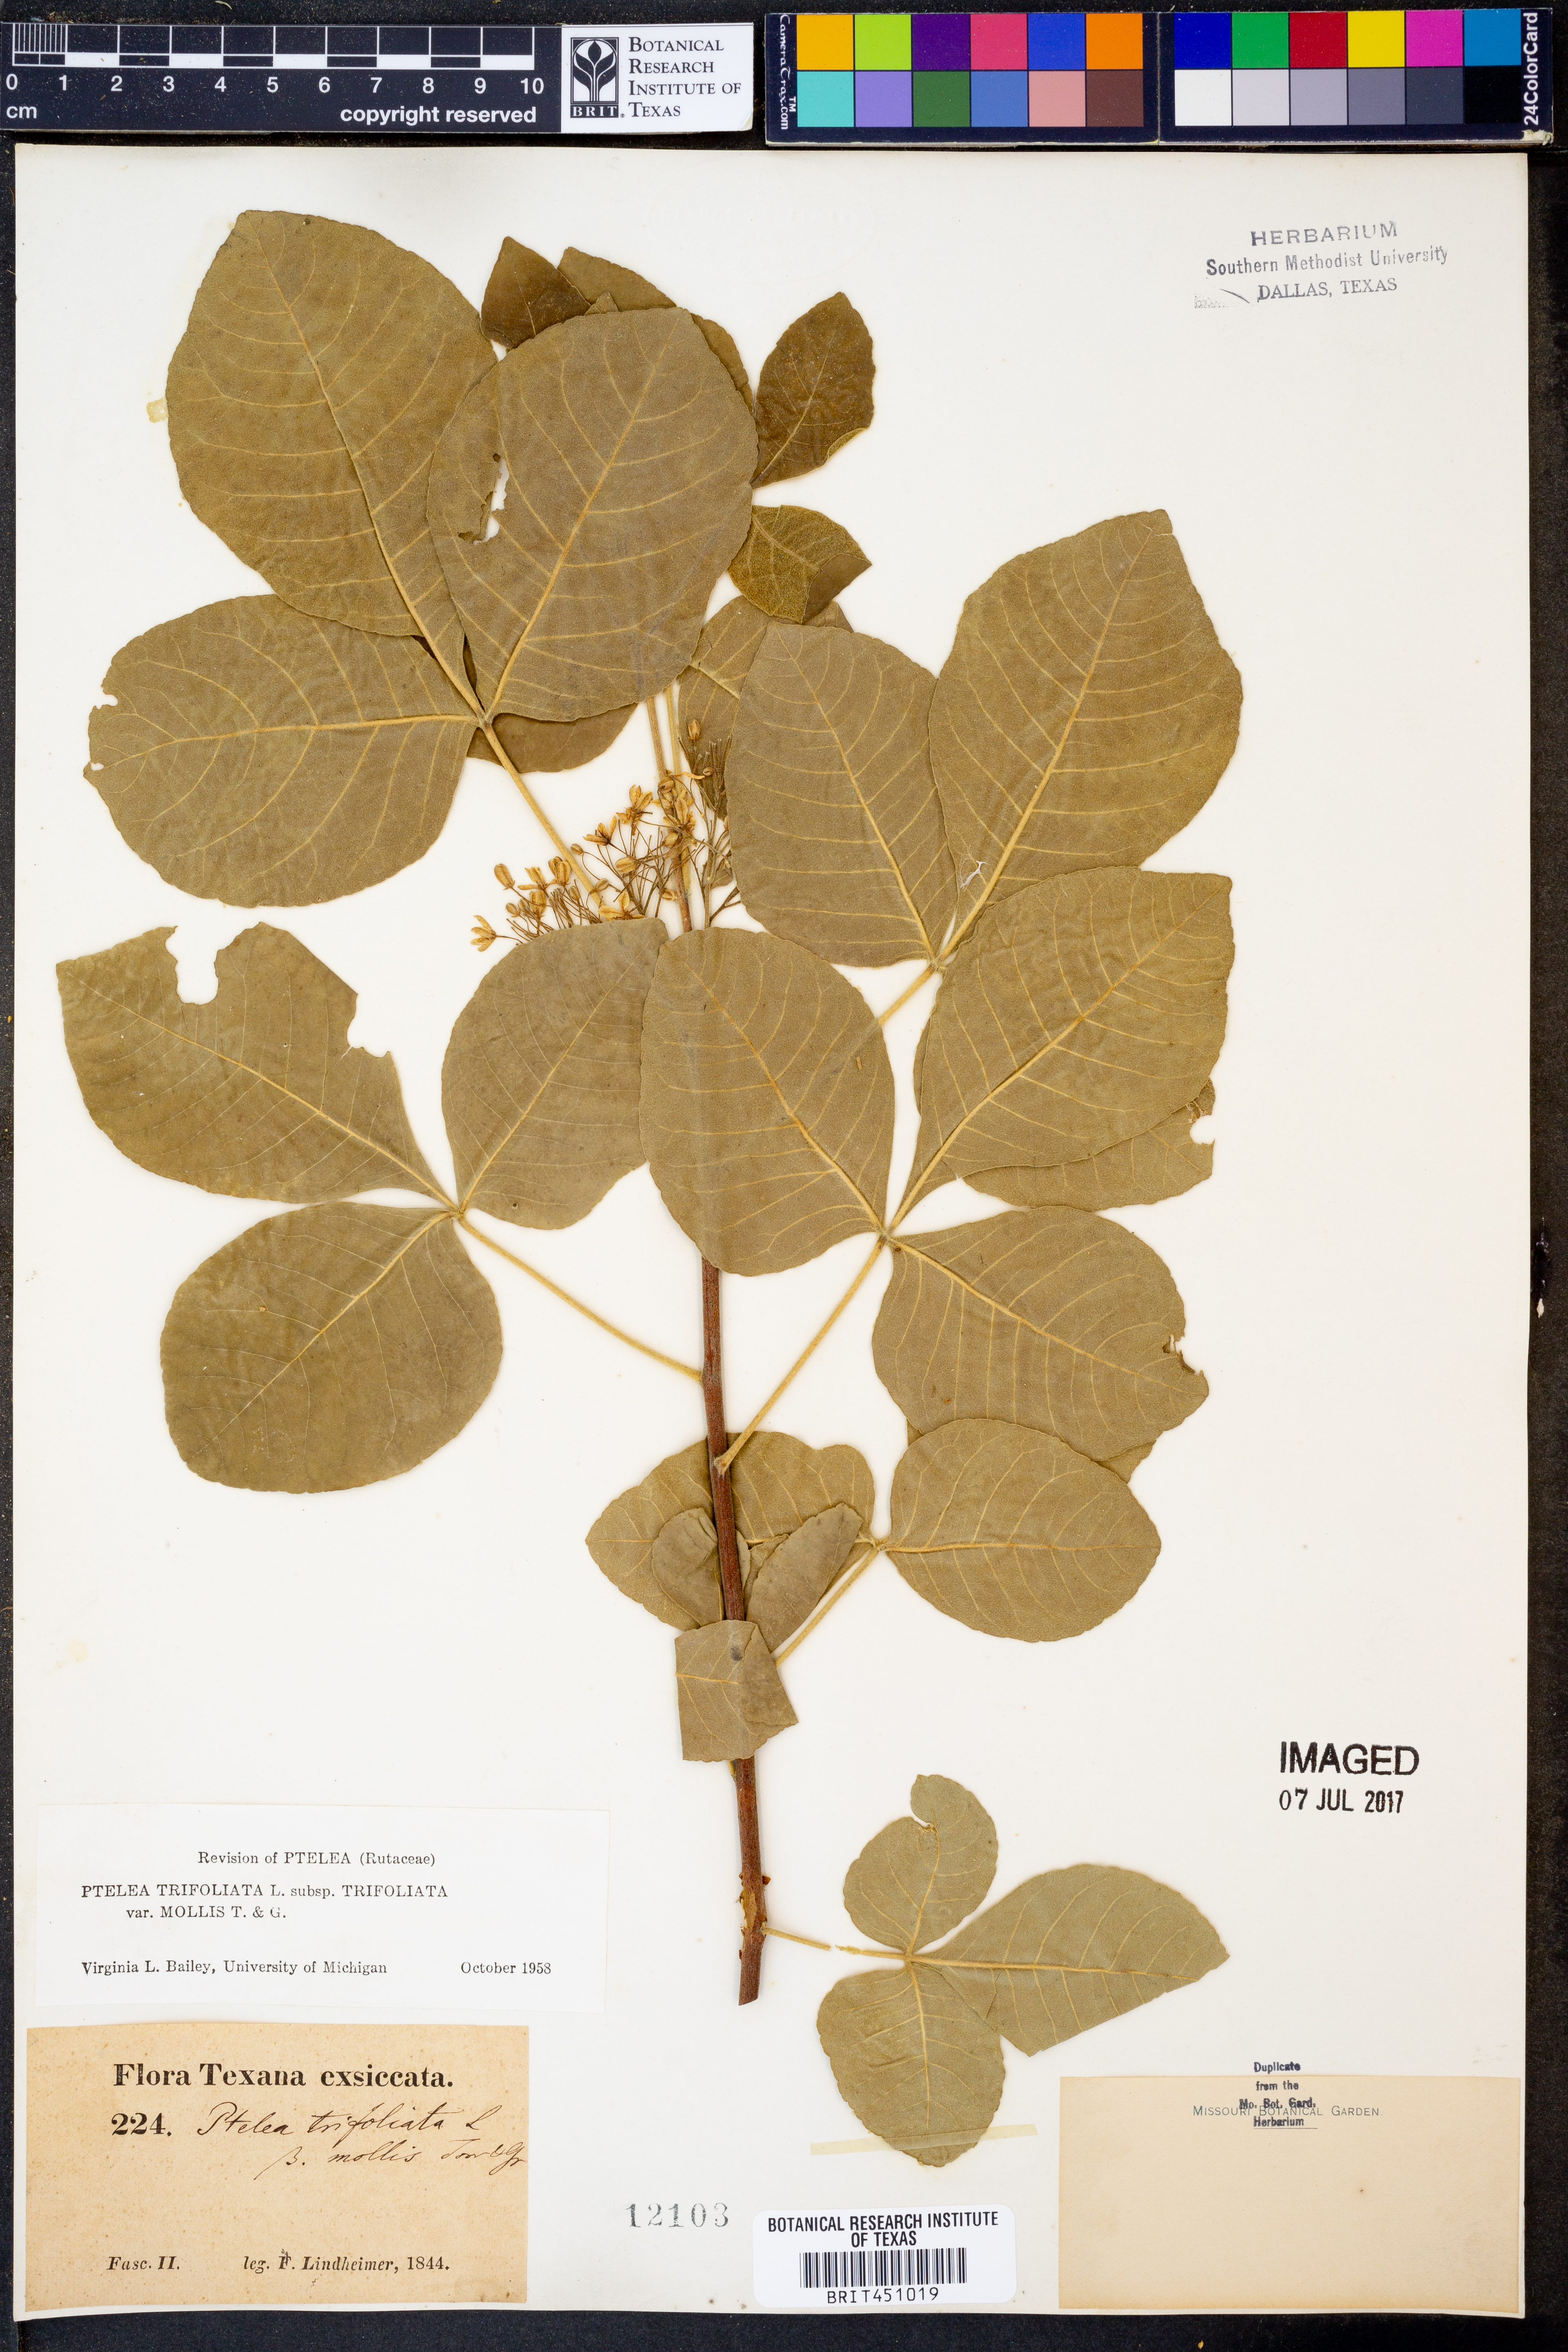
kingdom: Plantae
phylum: Tracheophyta
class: Magnoliopsida
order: Sapindales
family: Rutaceae
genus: Ptelea
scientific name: Ptelea trifoliata
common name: Common hop-tree
